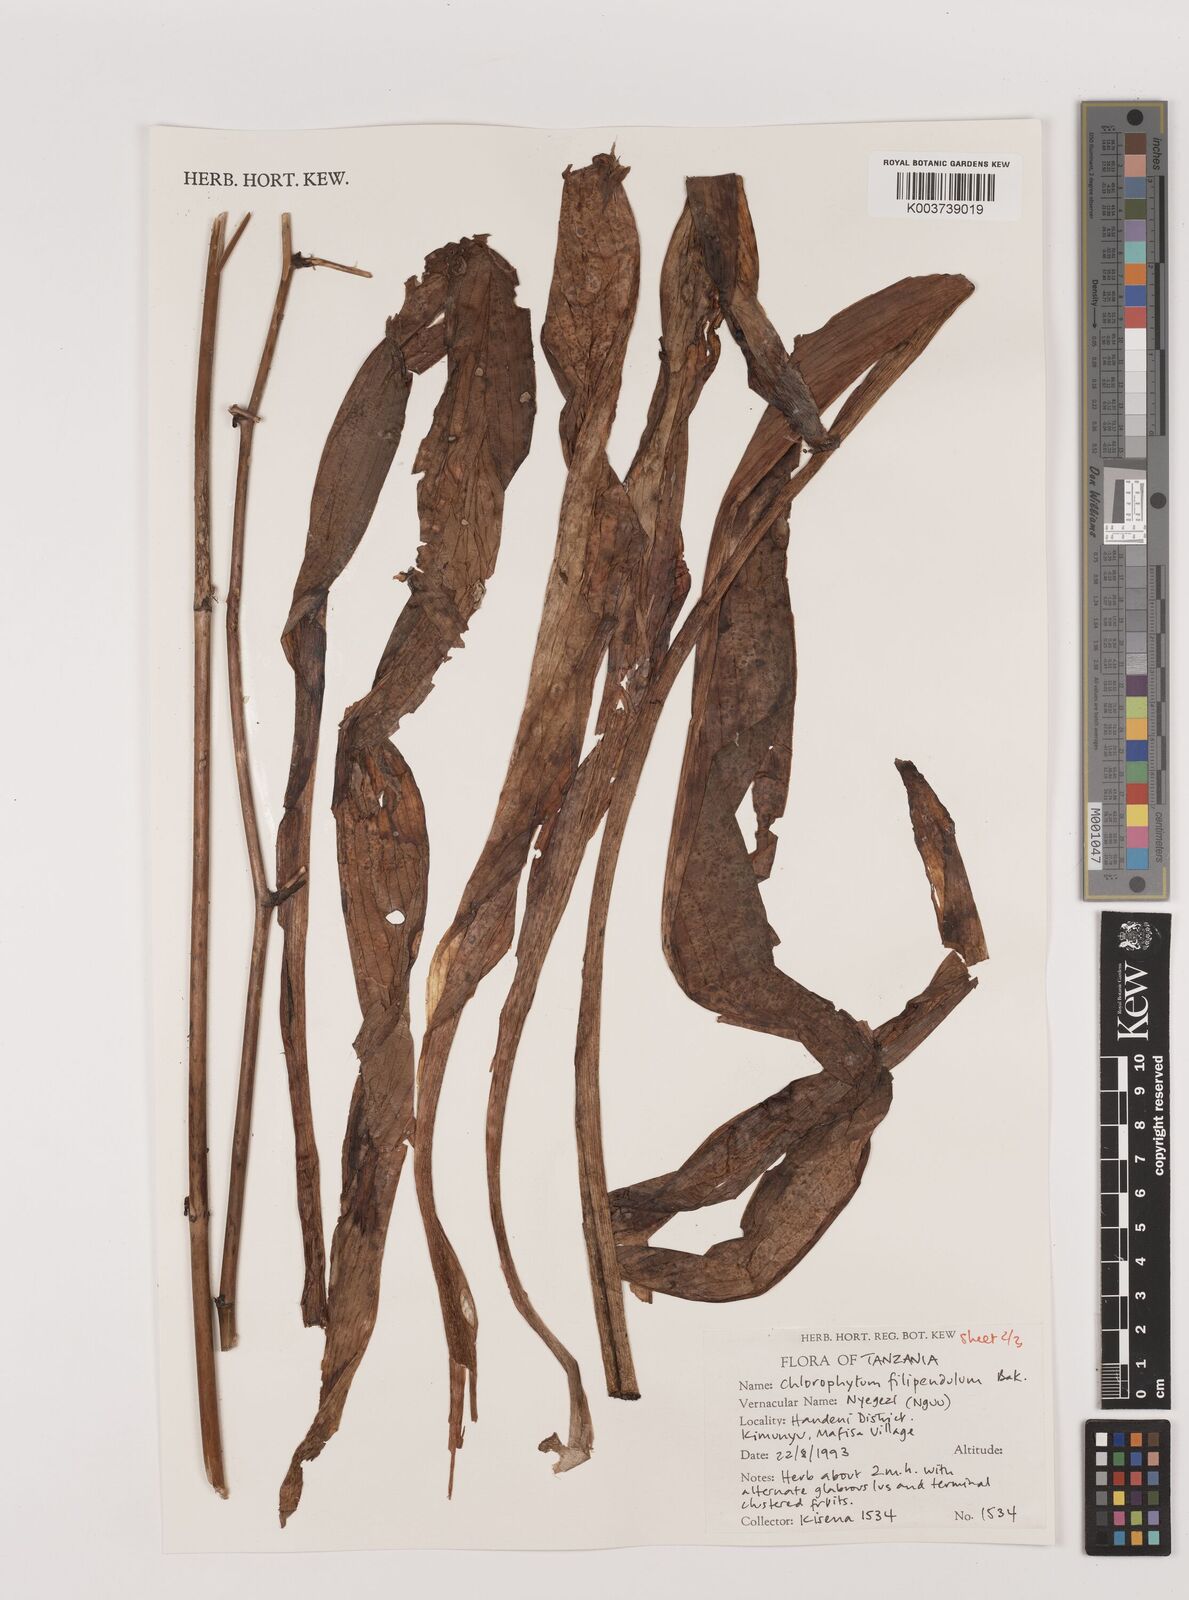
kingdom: Plantae
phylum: Tracheophyta
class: Liliopsida
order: Asparagales
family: Asparagaceae
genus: Chlorophytum
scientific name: Chlorophytum filipendulum
